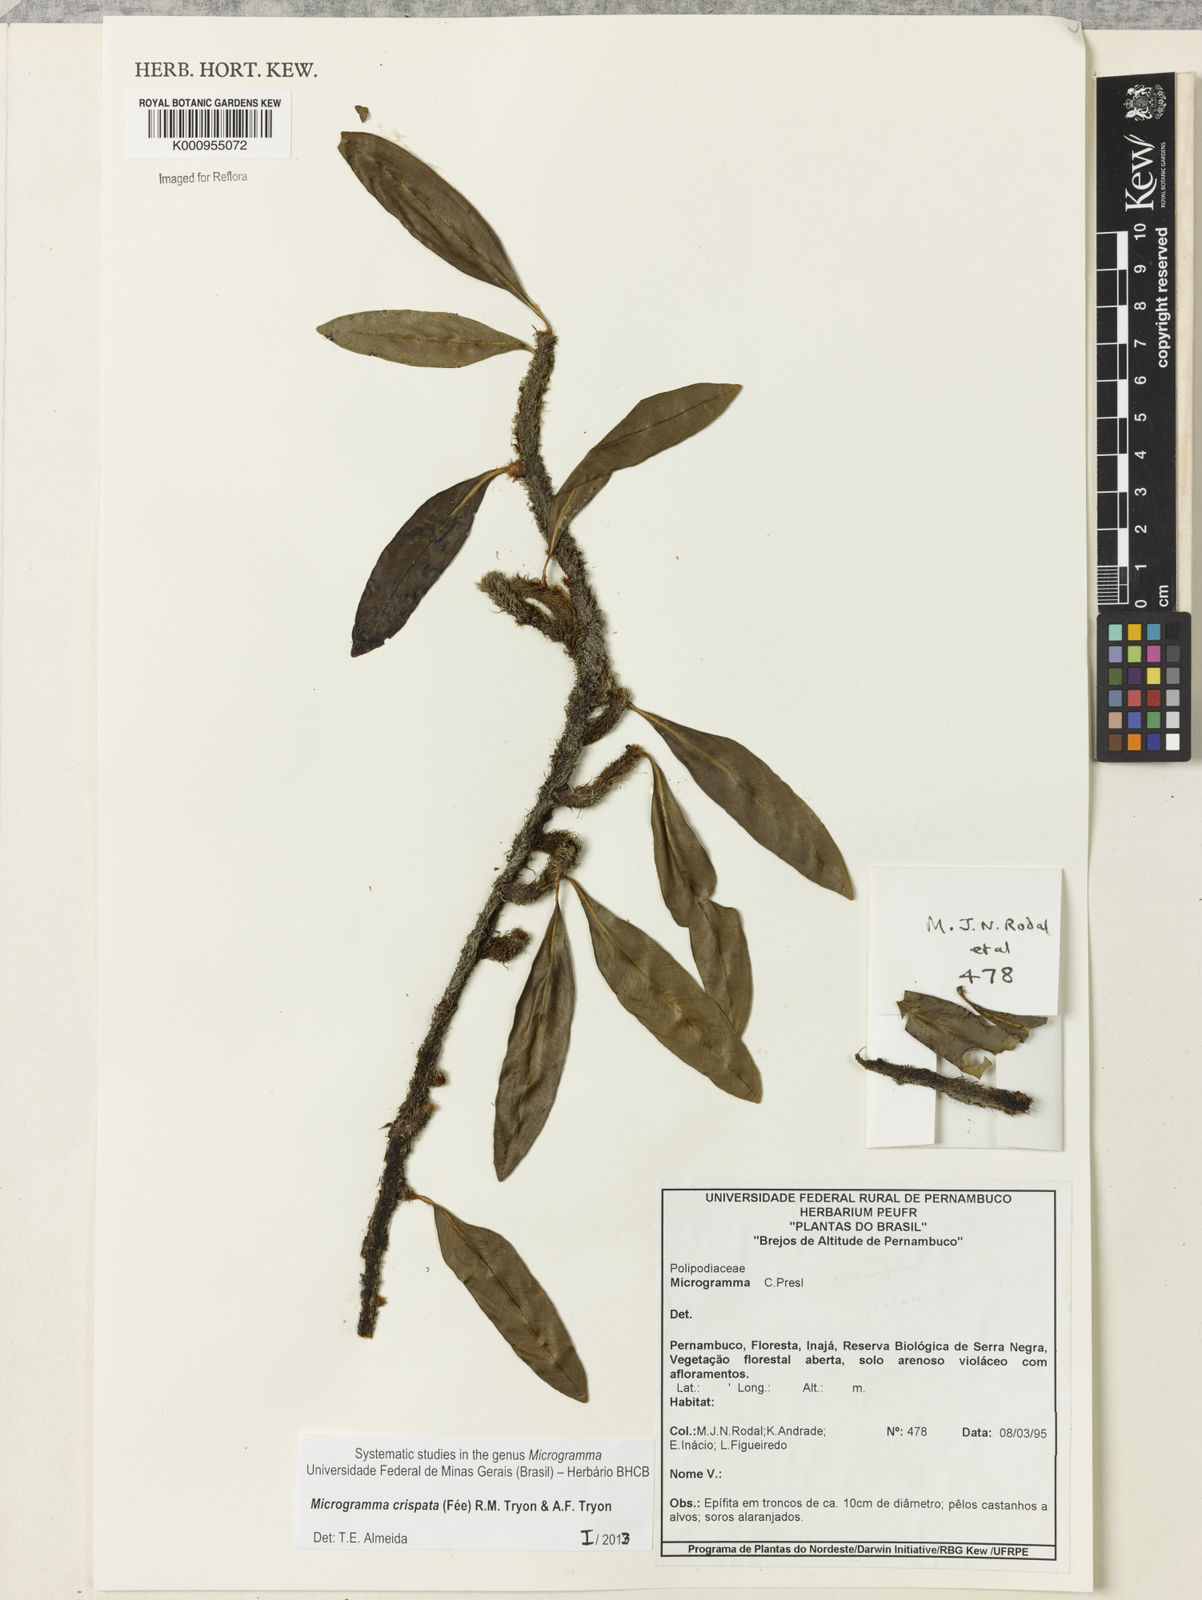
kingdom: Plantae
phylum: Tracheophyta
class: Polypodiopsida
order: Polypodiales
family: Polypodiaceae
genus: Microgramma
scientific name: Microgramma
